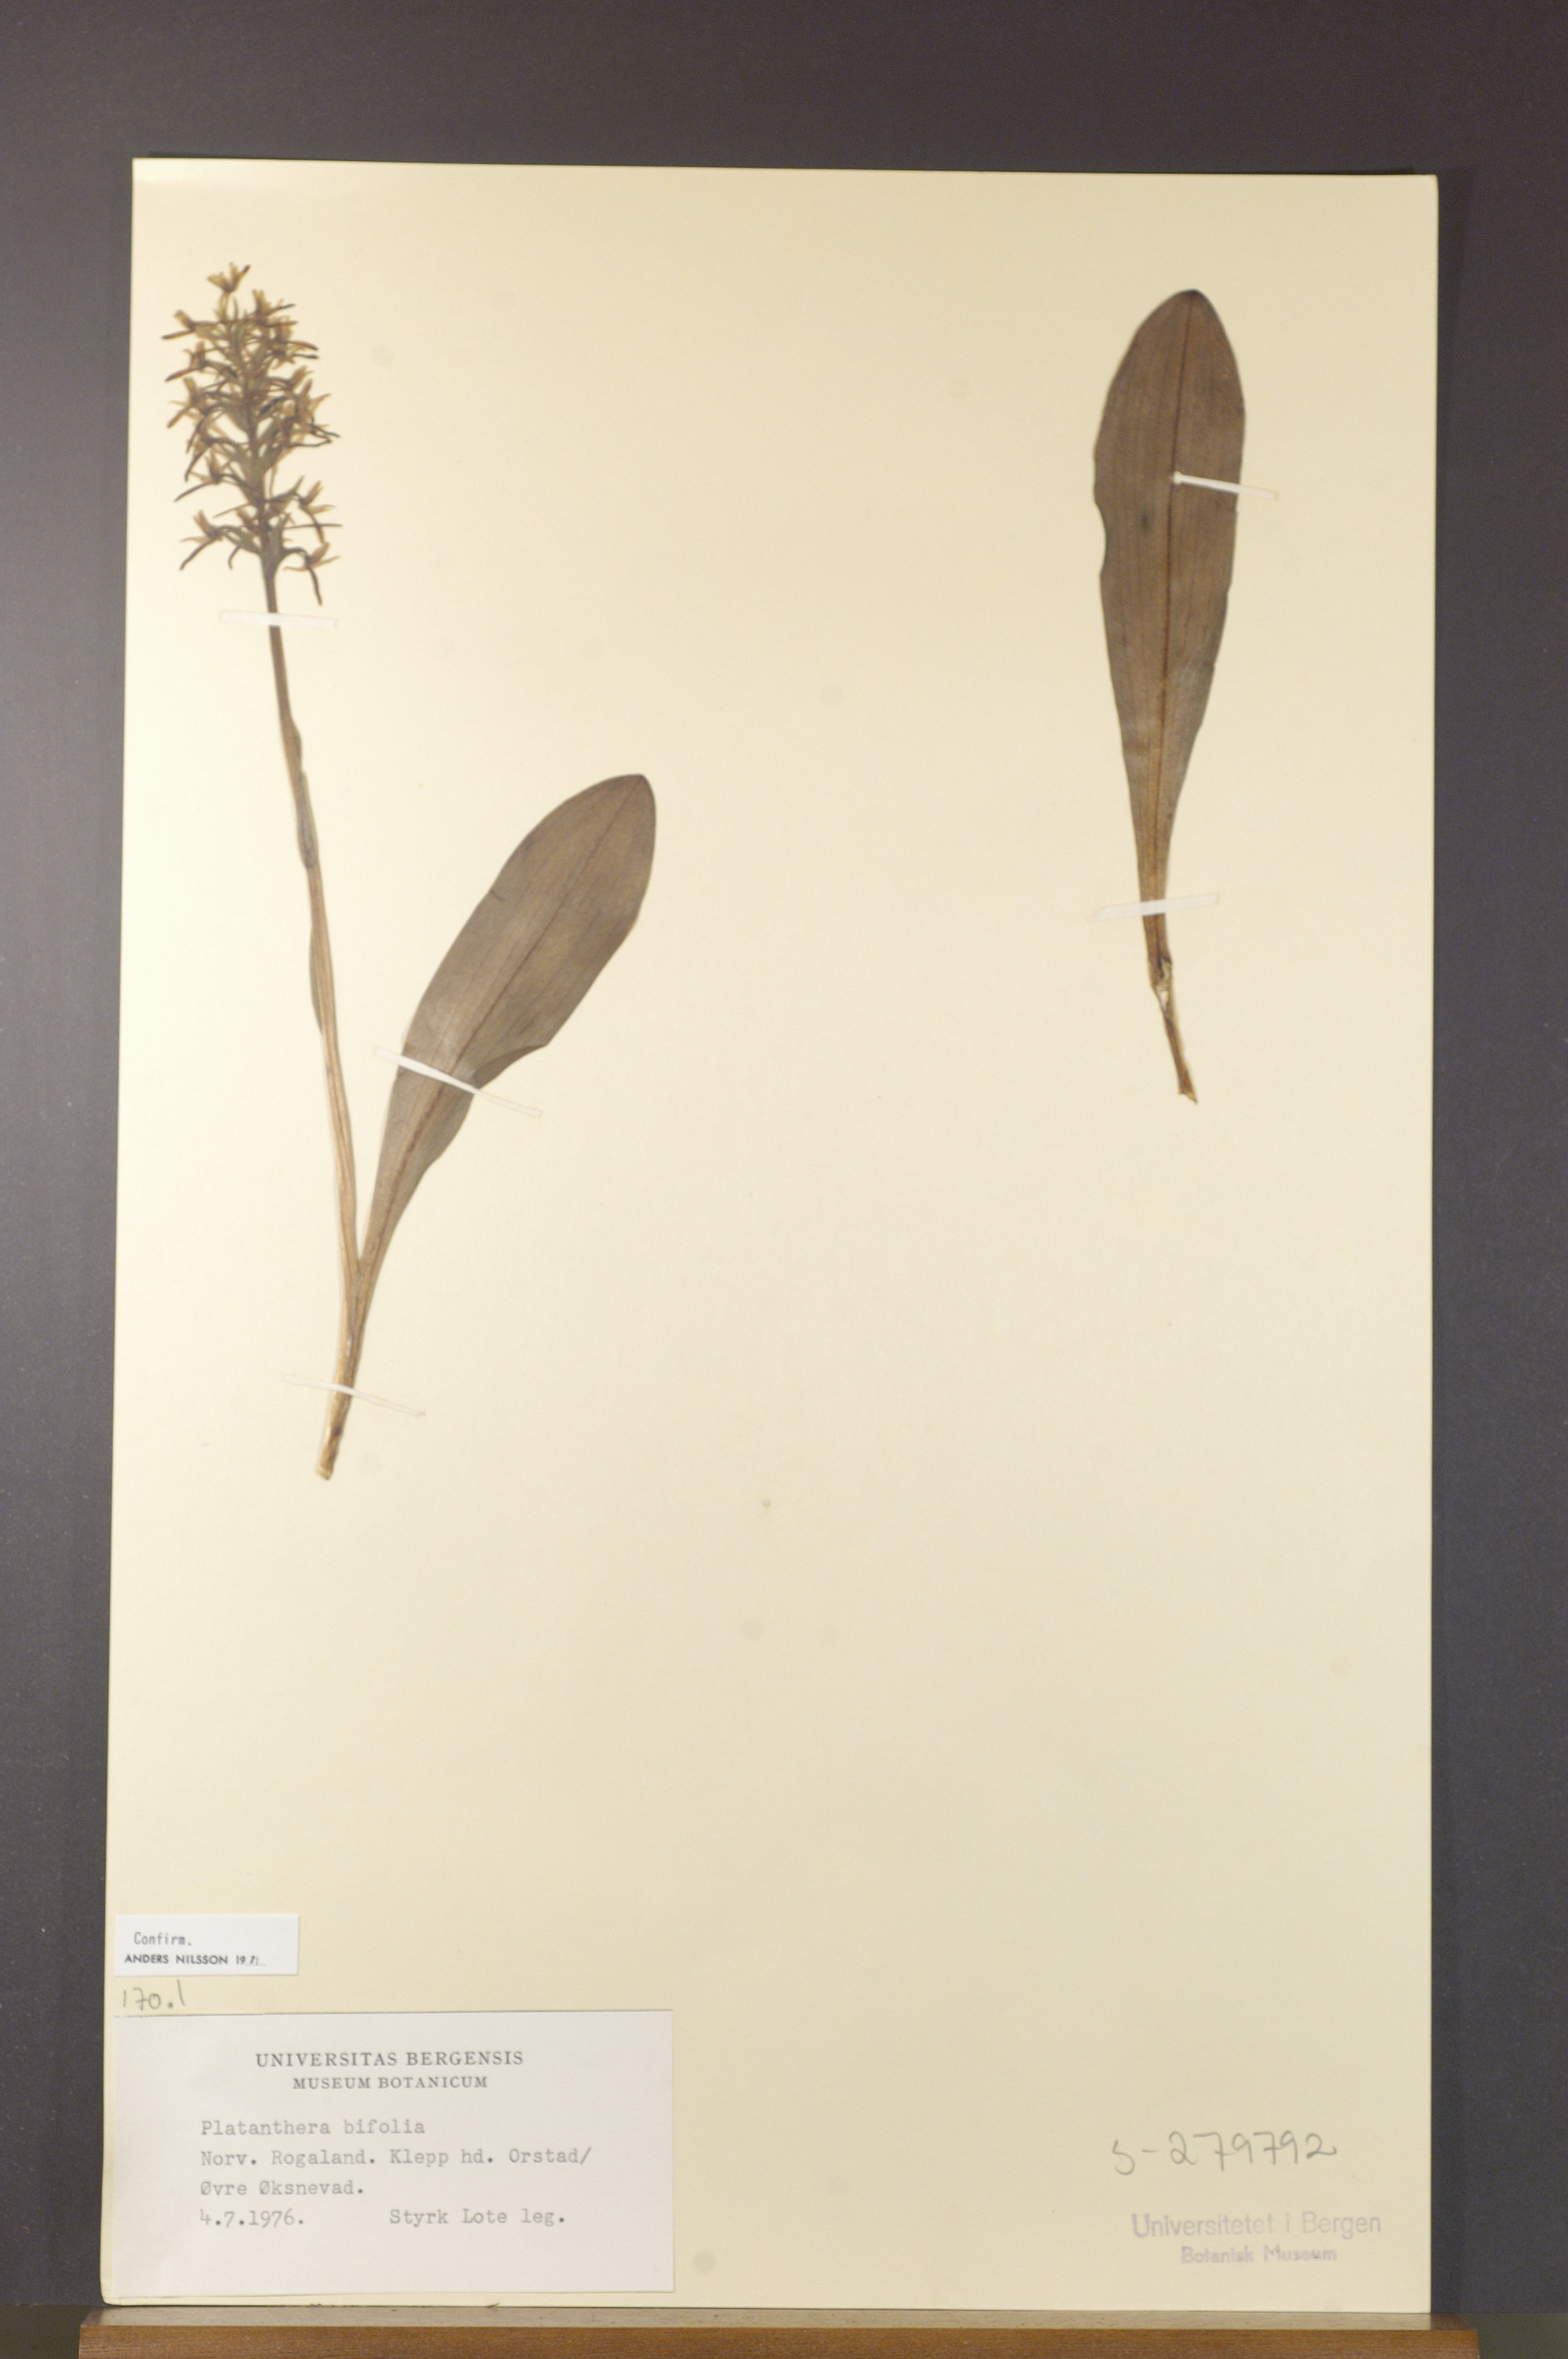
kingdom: Plantae
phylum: Tracheophyta
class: Liliopsida
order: Asparagales
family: Orchidaceae
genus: Platanthera
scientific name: Platanthera bifolia
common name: Lesser butterfly-orchid
